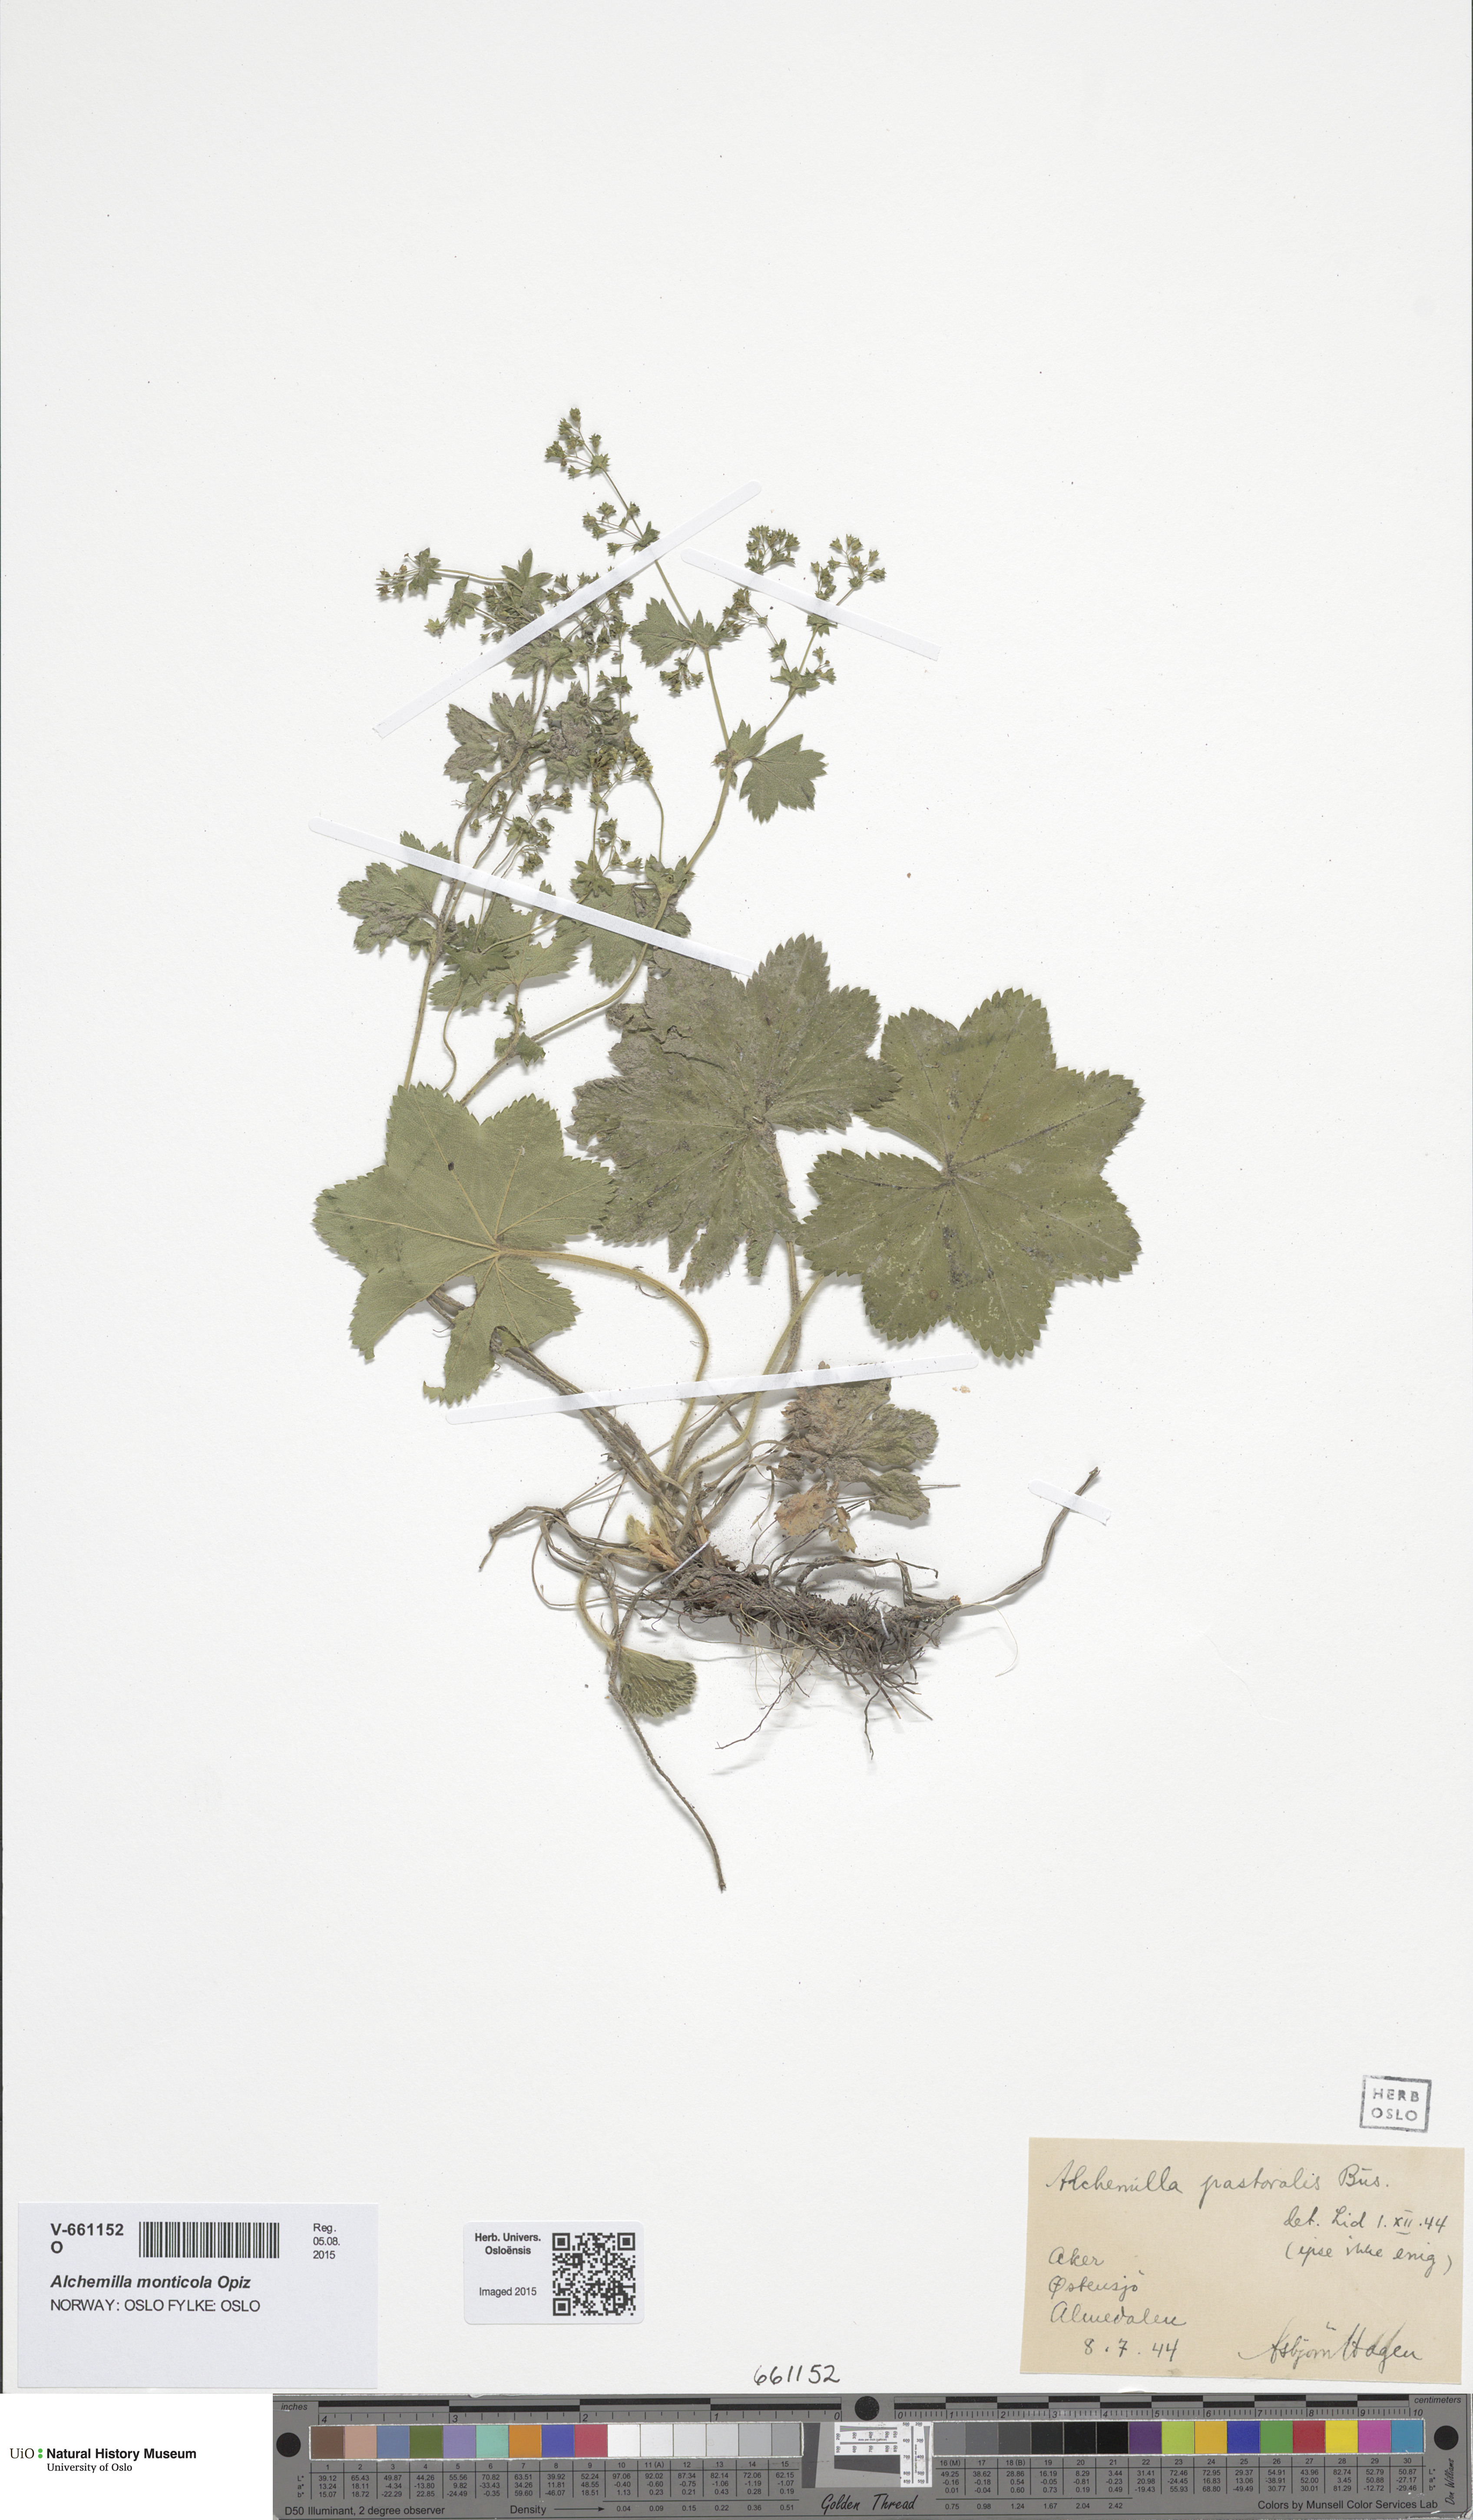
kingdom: Plantae
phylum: Tracheophyta
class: Magnoliopsida
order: Rosales
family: Rosaceae
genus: Alchemilla
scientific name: Alchemilla micans
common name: Gleaming lady's mantle
